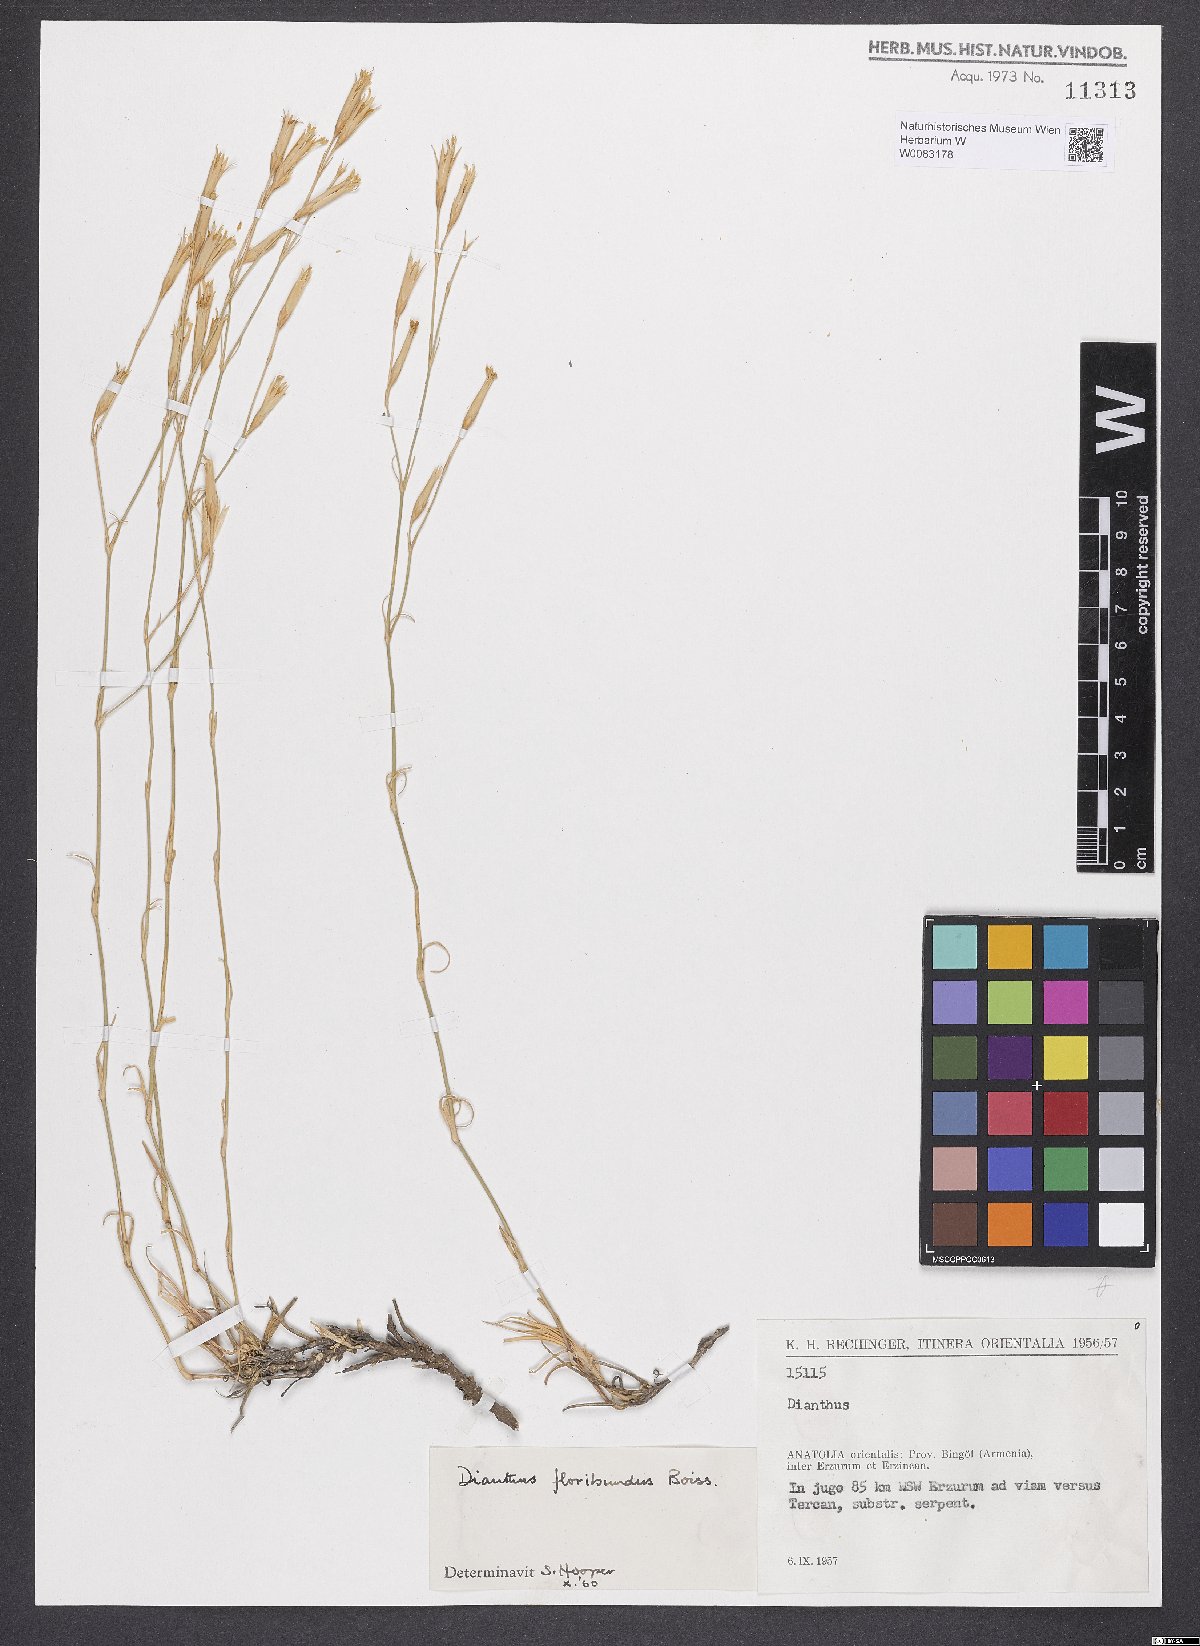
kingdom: Plantae
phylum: Tracheophyta
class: Magnoliopsida
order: Caryophyllales
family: Caryophyllaceae
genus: Dianthus
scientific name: Dianthus floribundus
